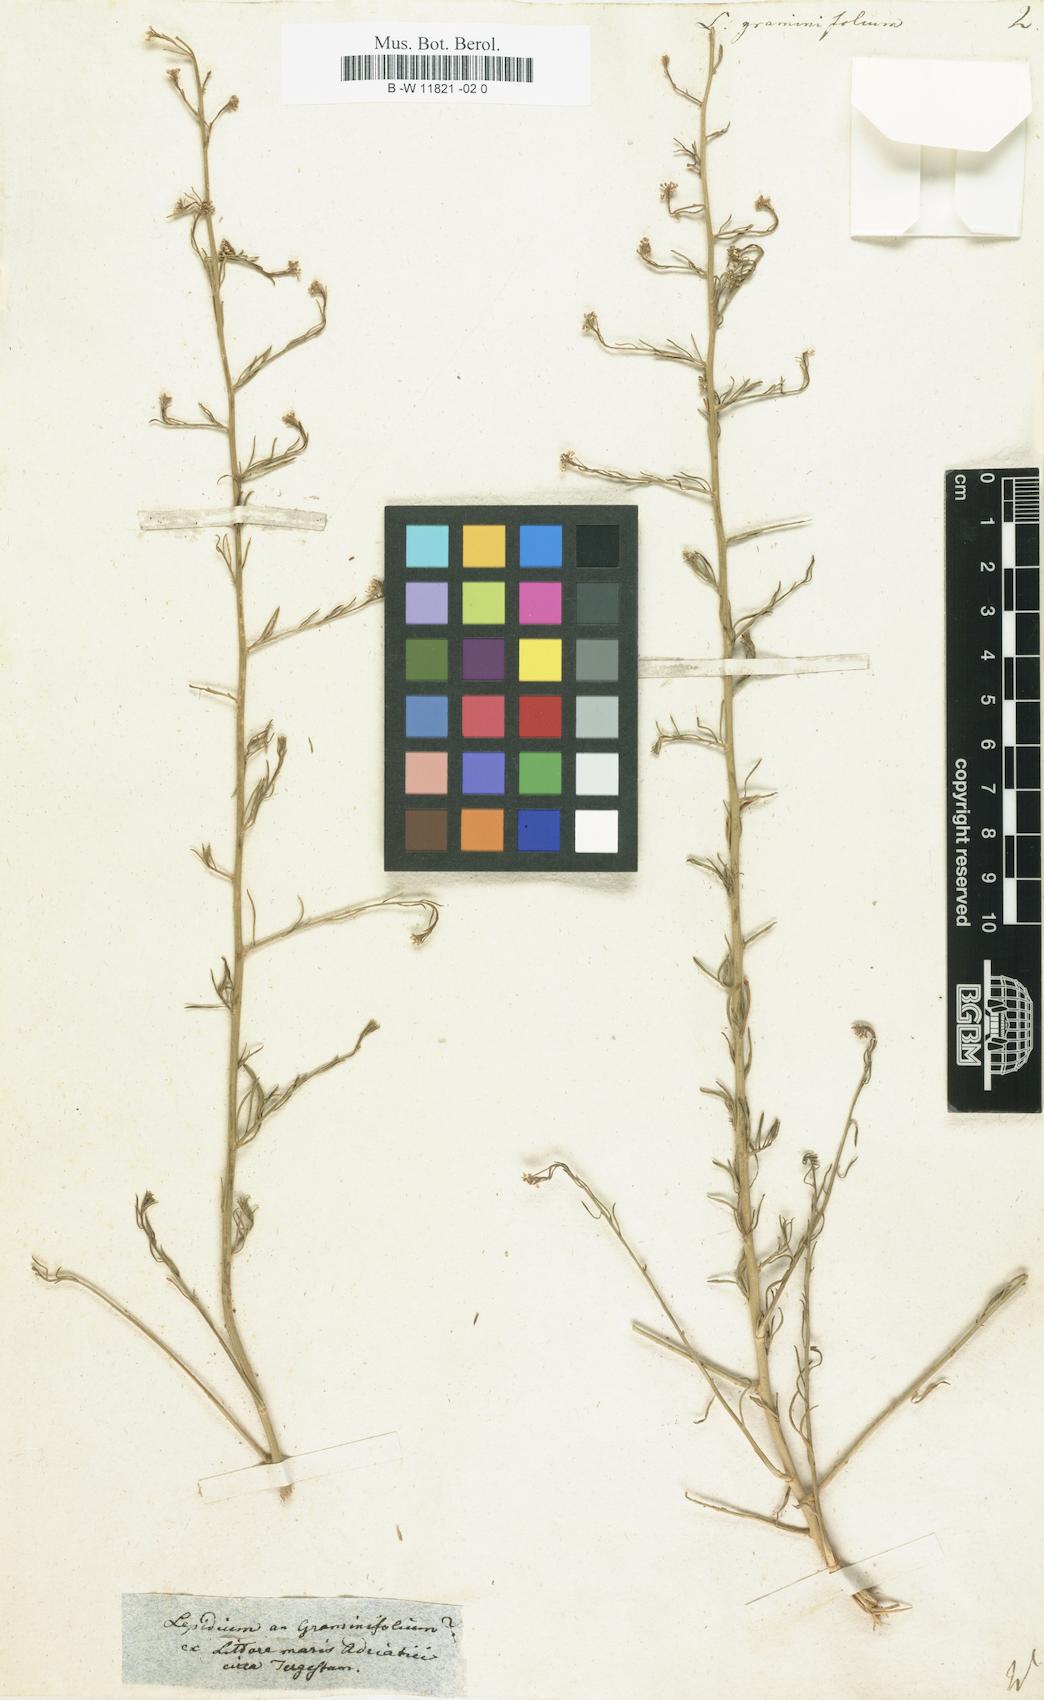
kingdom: Plantae
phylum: Tracheophyta
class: Magnoliopsida
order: Brassicales
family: Brassicaceae
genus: Lepidium
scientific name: Lepidium graminifolium
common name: Tall pepperwort
